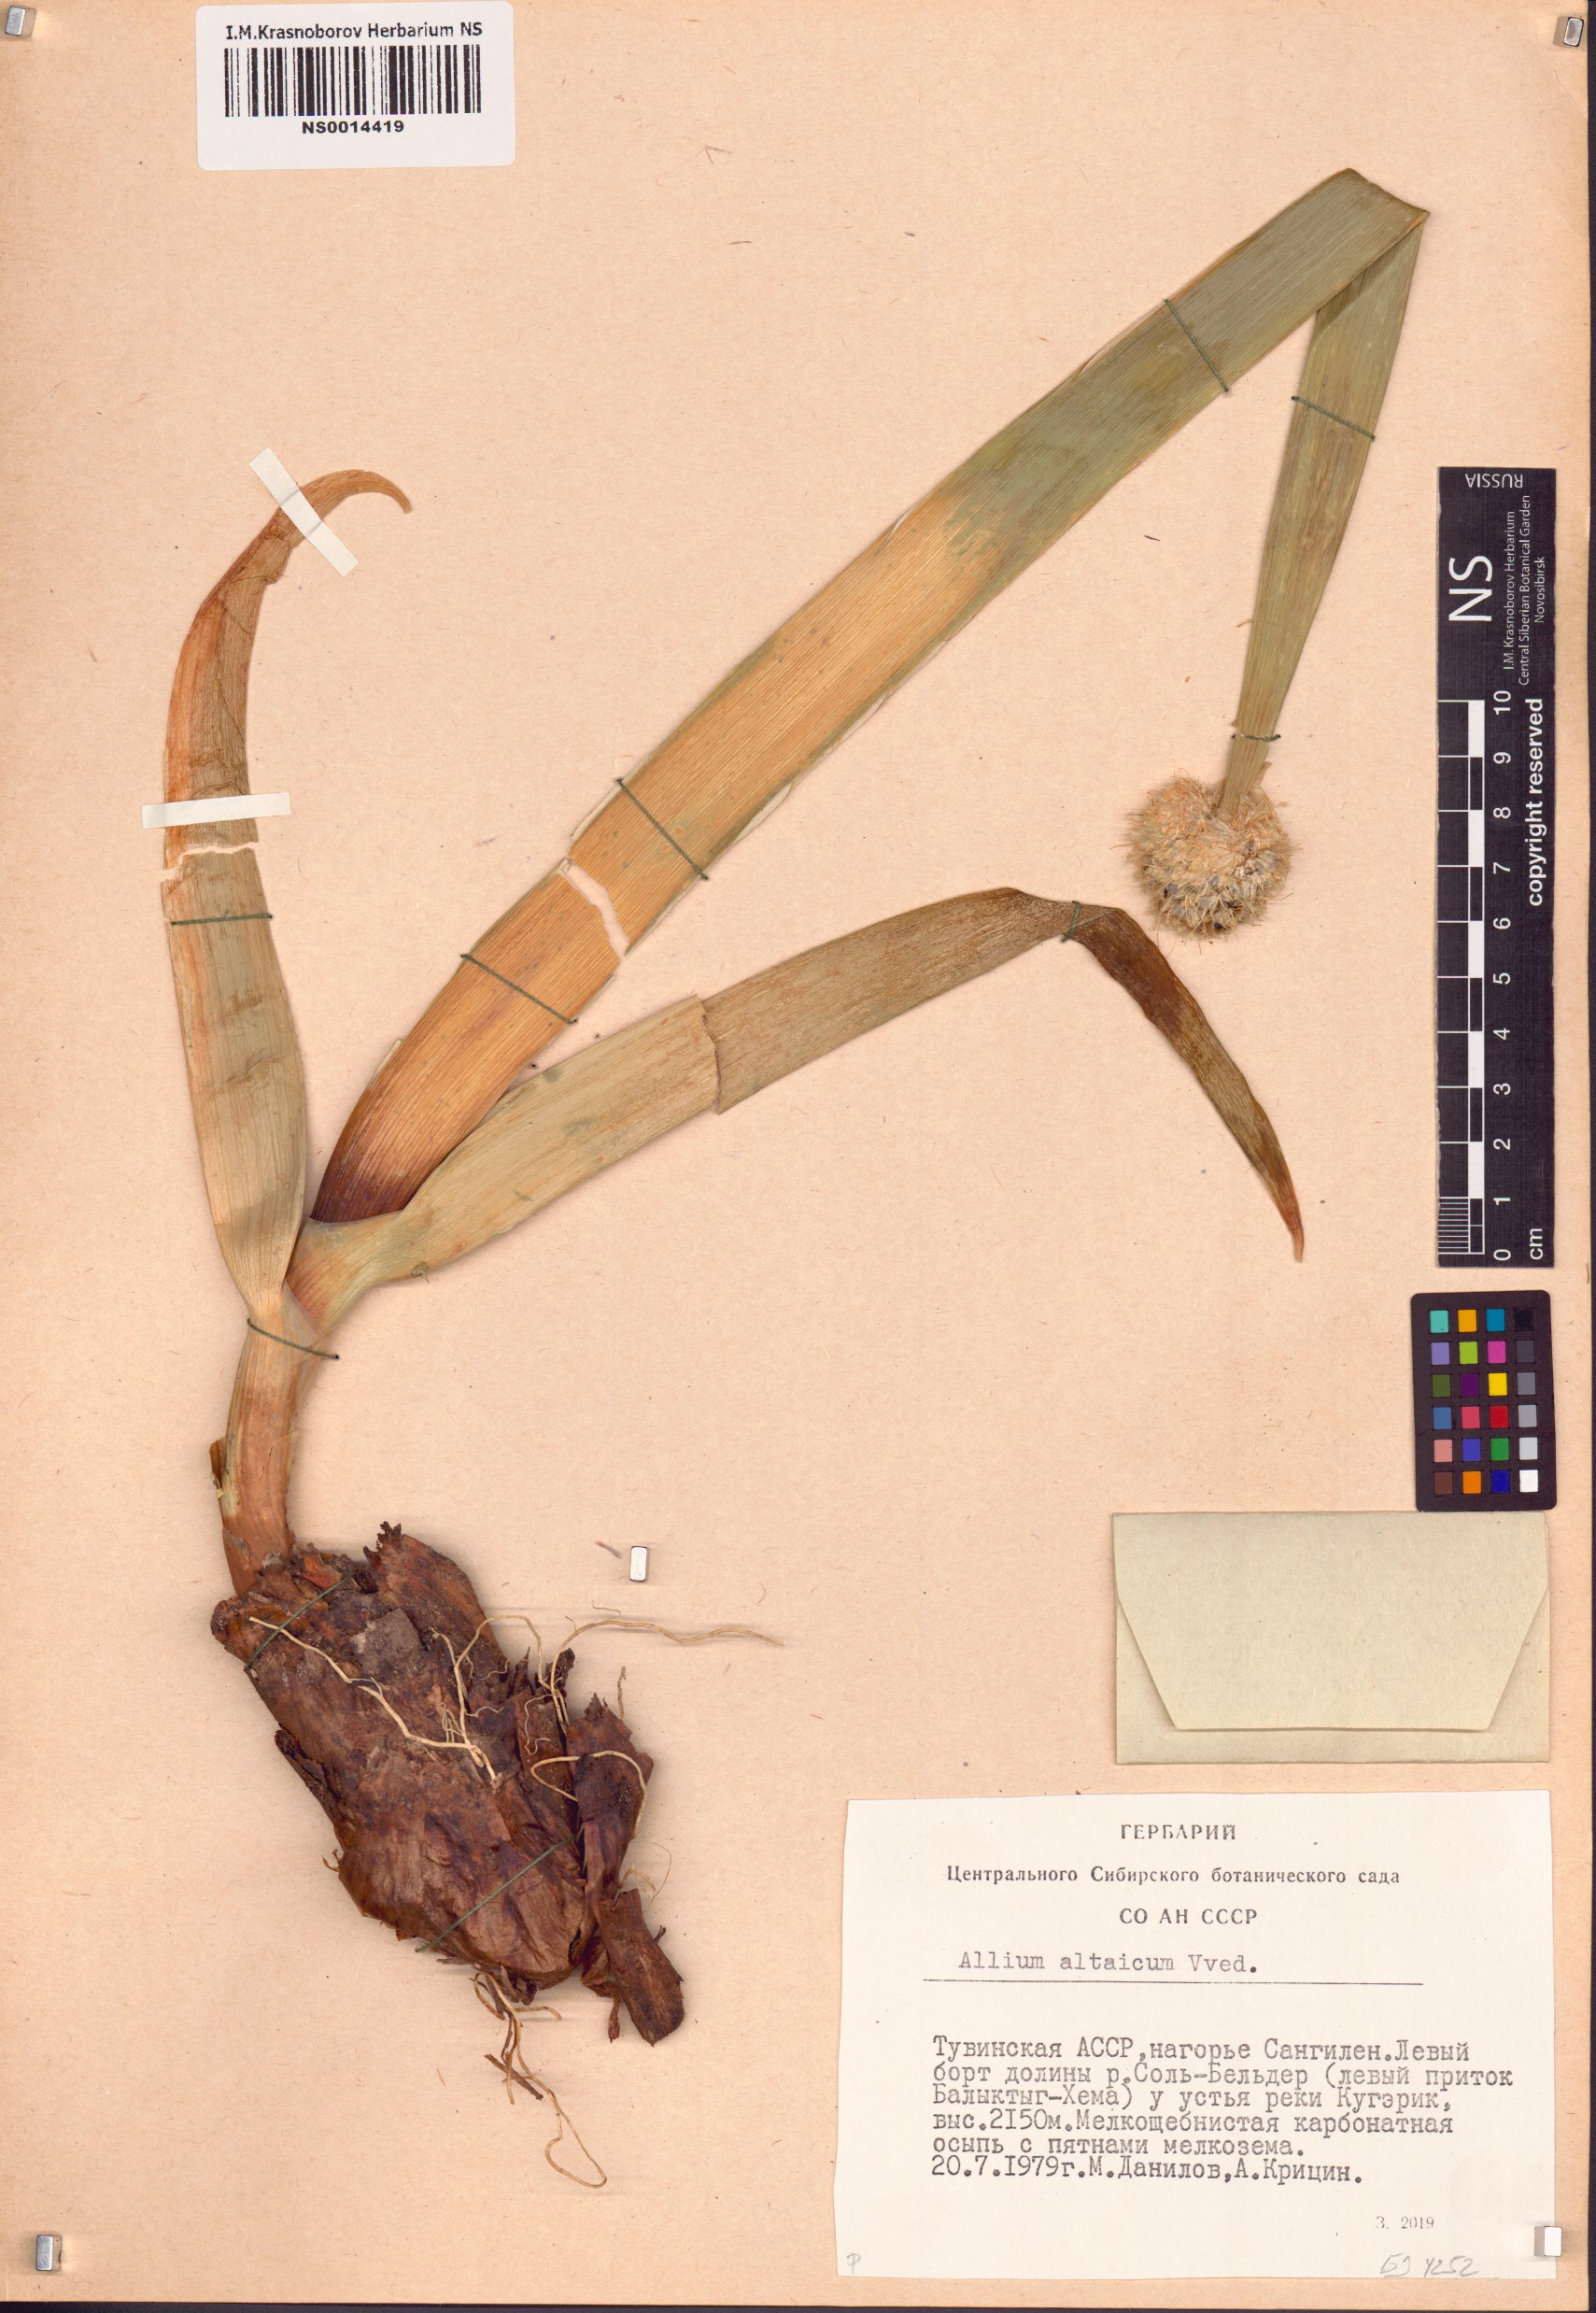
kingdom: Plantae
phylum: Tracheophyta
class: Liliopsida
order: Asparagales
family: Amaryllidaceae
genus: Allium
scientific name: Allium altaicum
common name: Altai onion
